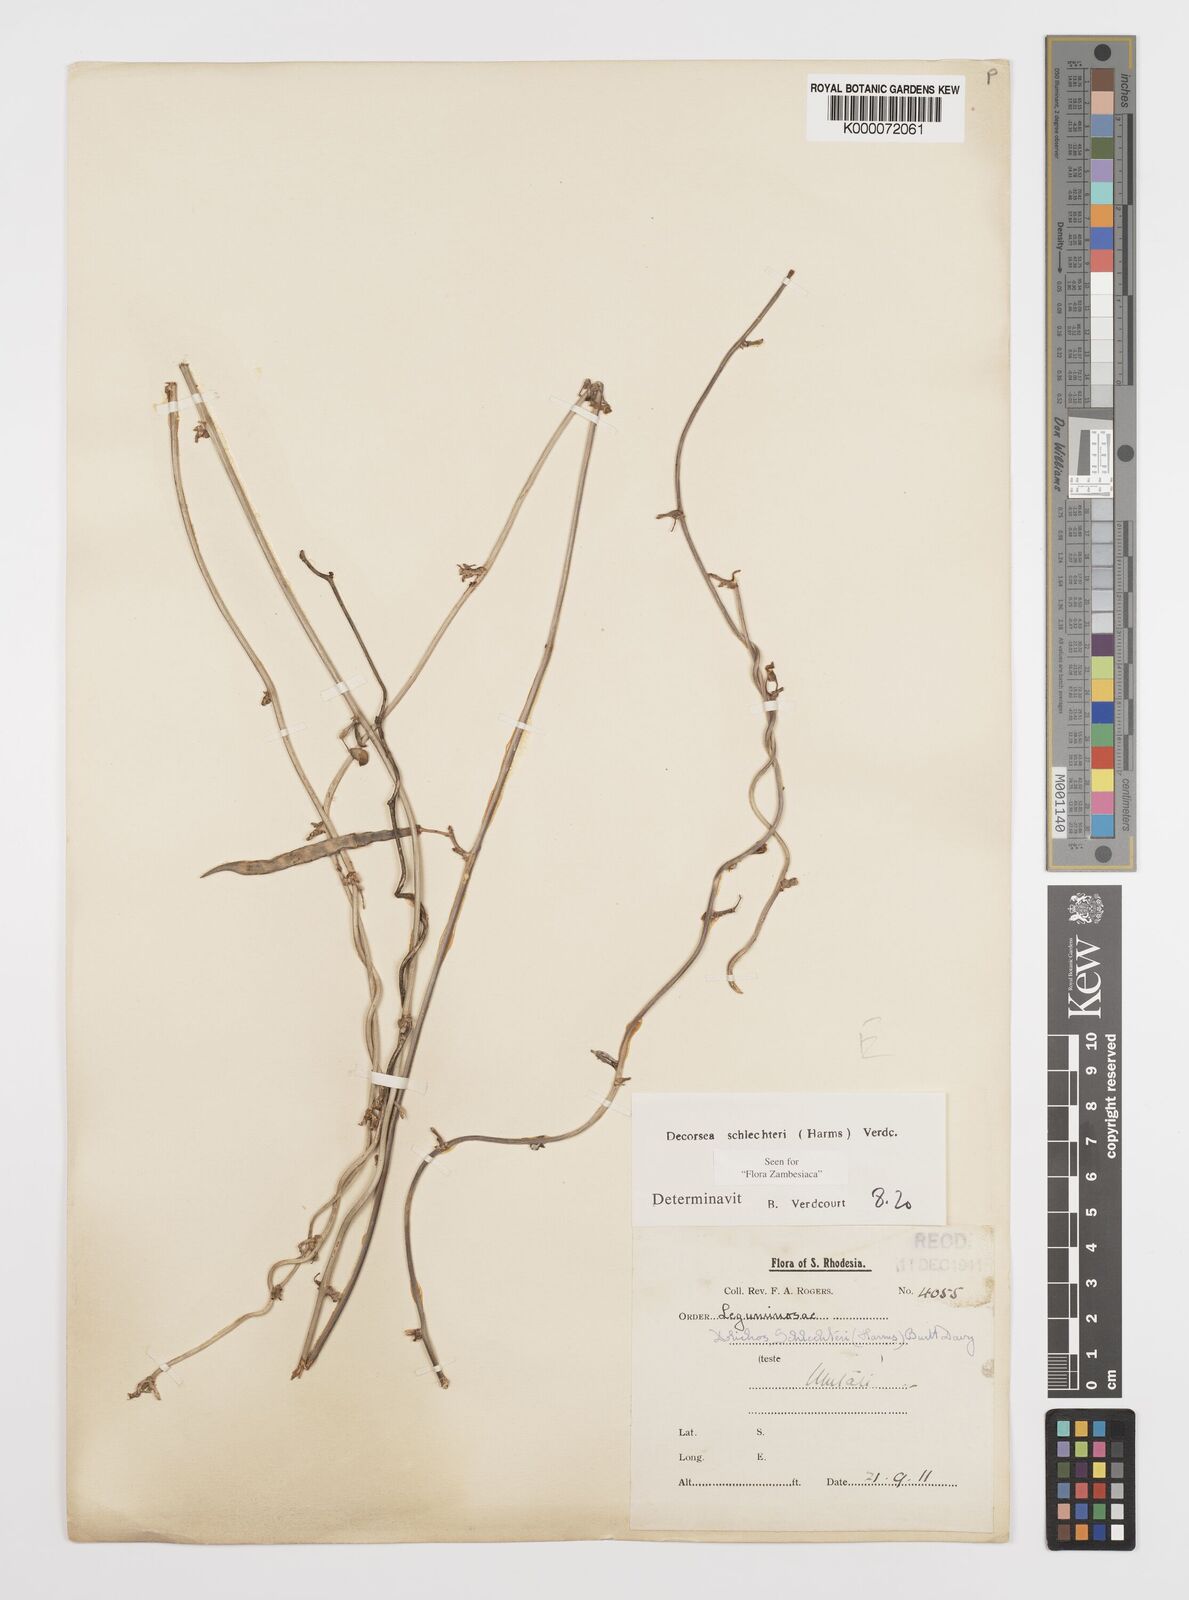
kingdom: Plantae
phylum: Tracheophyta
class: Magnoliopsida
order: Fabales
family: Fabaceae
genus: Decorsea
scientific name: Decorsea schlechteri
